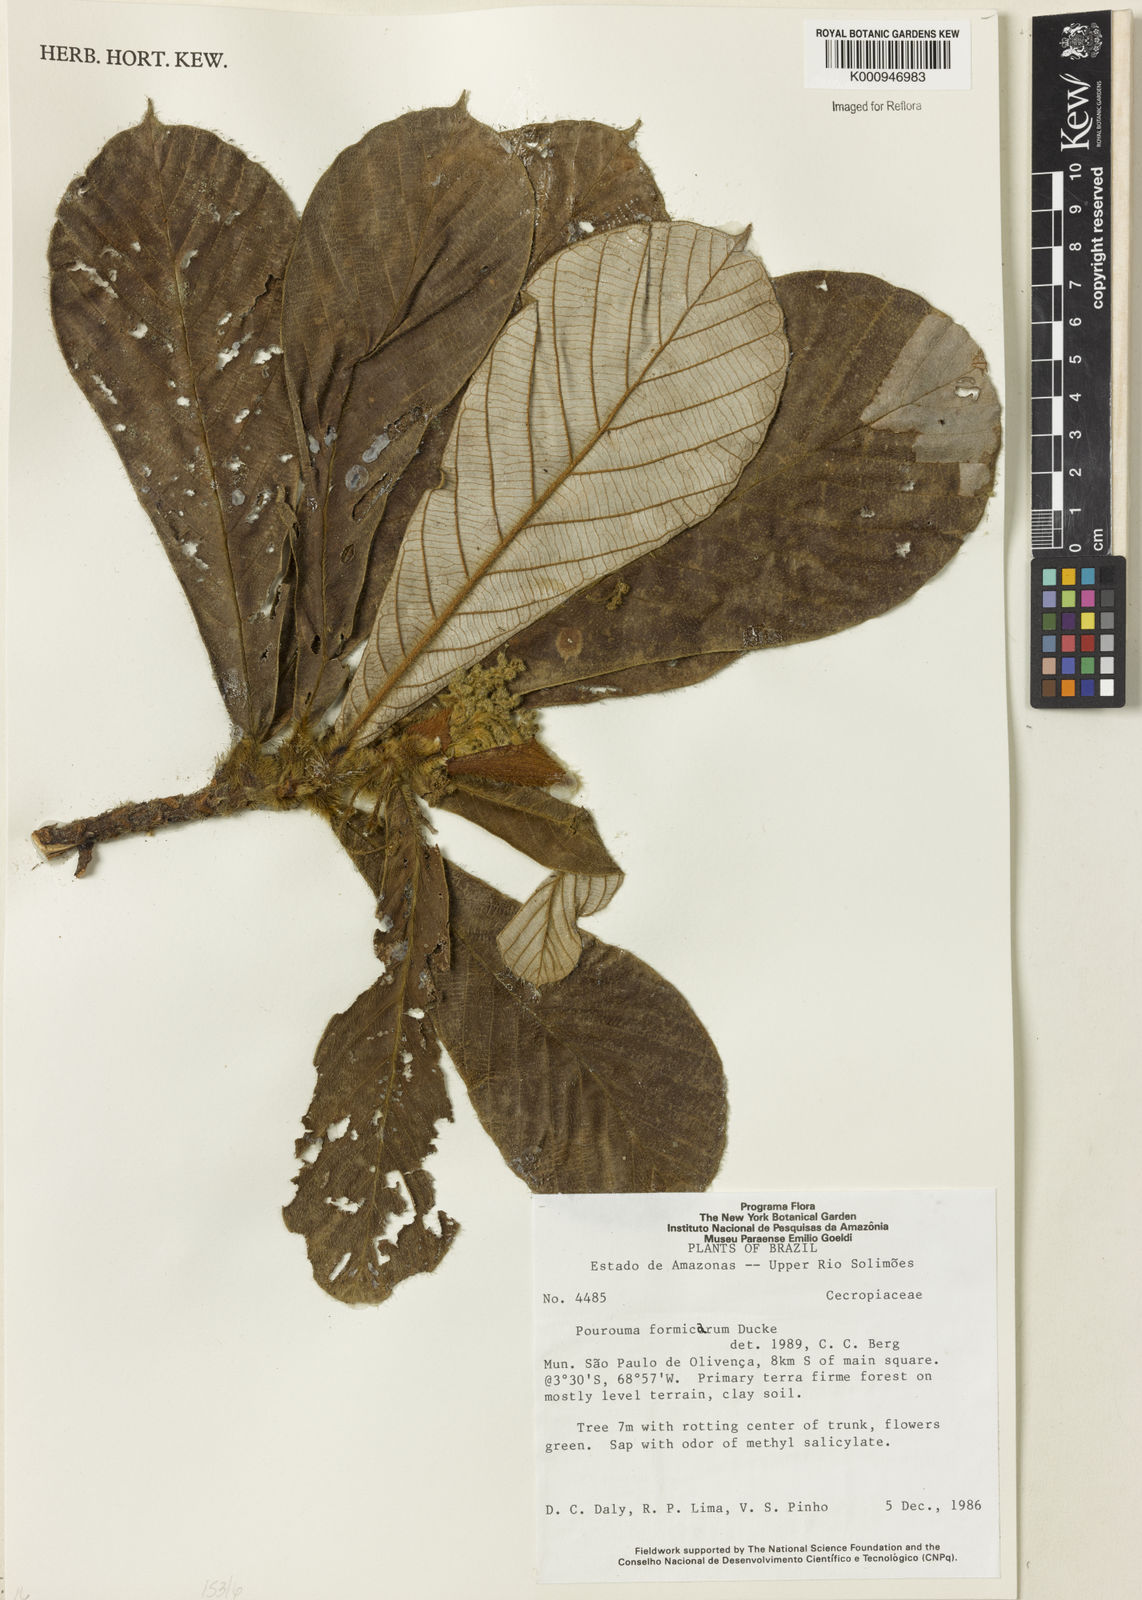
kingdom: Plantae
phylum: Tracheophyta
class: Magnoliopsida
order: Rosales
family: Urticaceae
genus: Pourouma
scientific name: Pourouma formicarum
